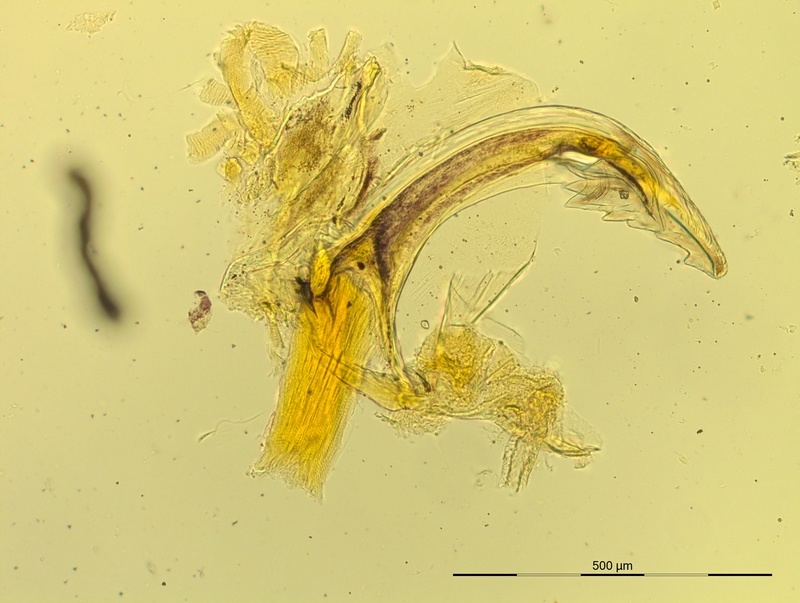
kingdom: Animalia
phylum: Arthropoda
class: Diplopoda
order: Chordeumatida
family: Craspedosomatidae
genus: Pyrgocyphosoma
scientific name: Pyrgocyphosoma tendanum
